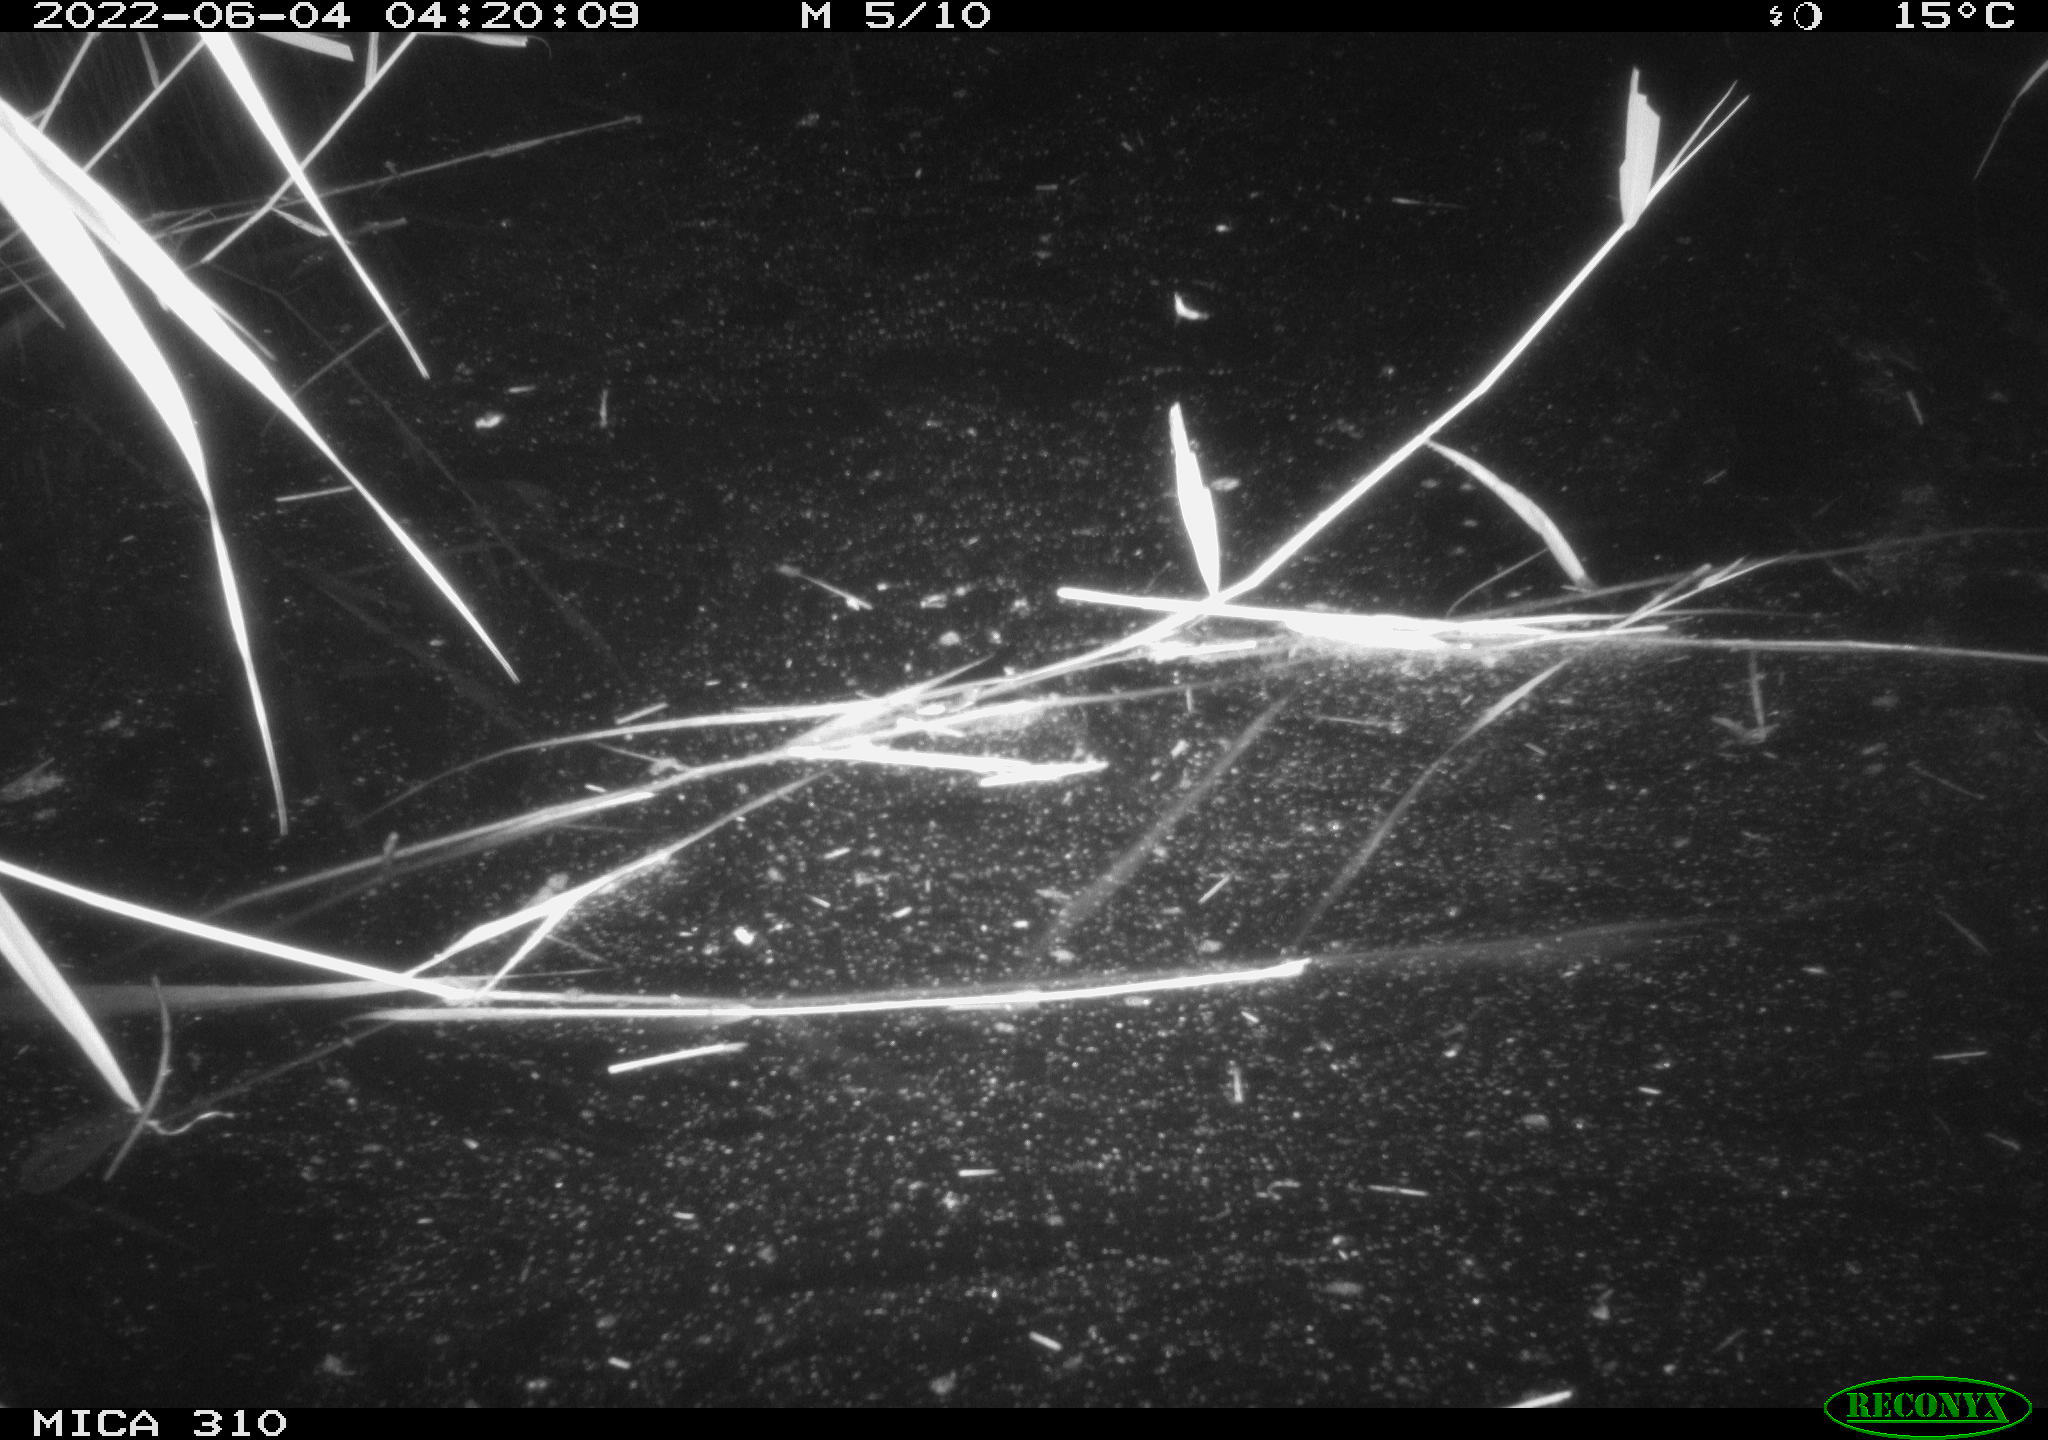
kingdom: Animalia
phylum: Chordata
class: Aves
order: Anseriformes
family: Anatidae
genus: Anas
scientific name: Anas platyrhynchos
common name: Mallard
